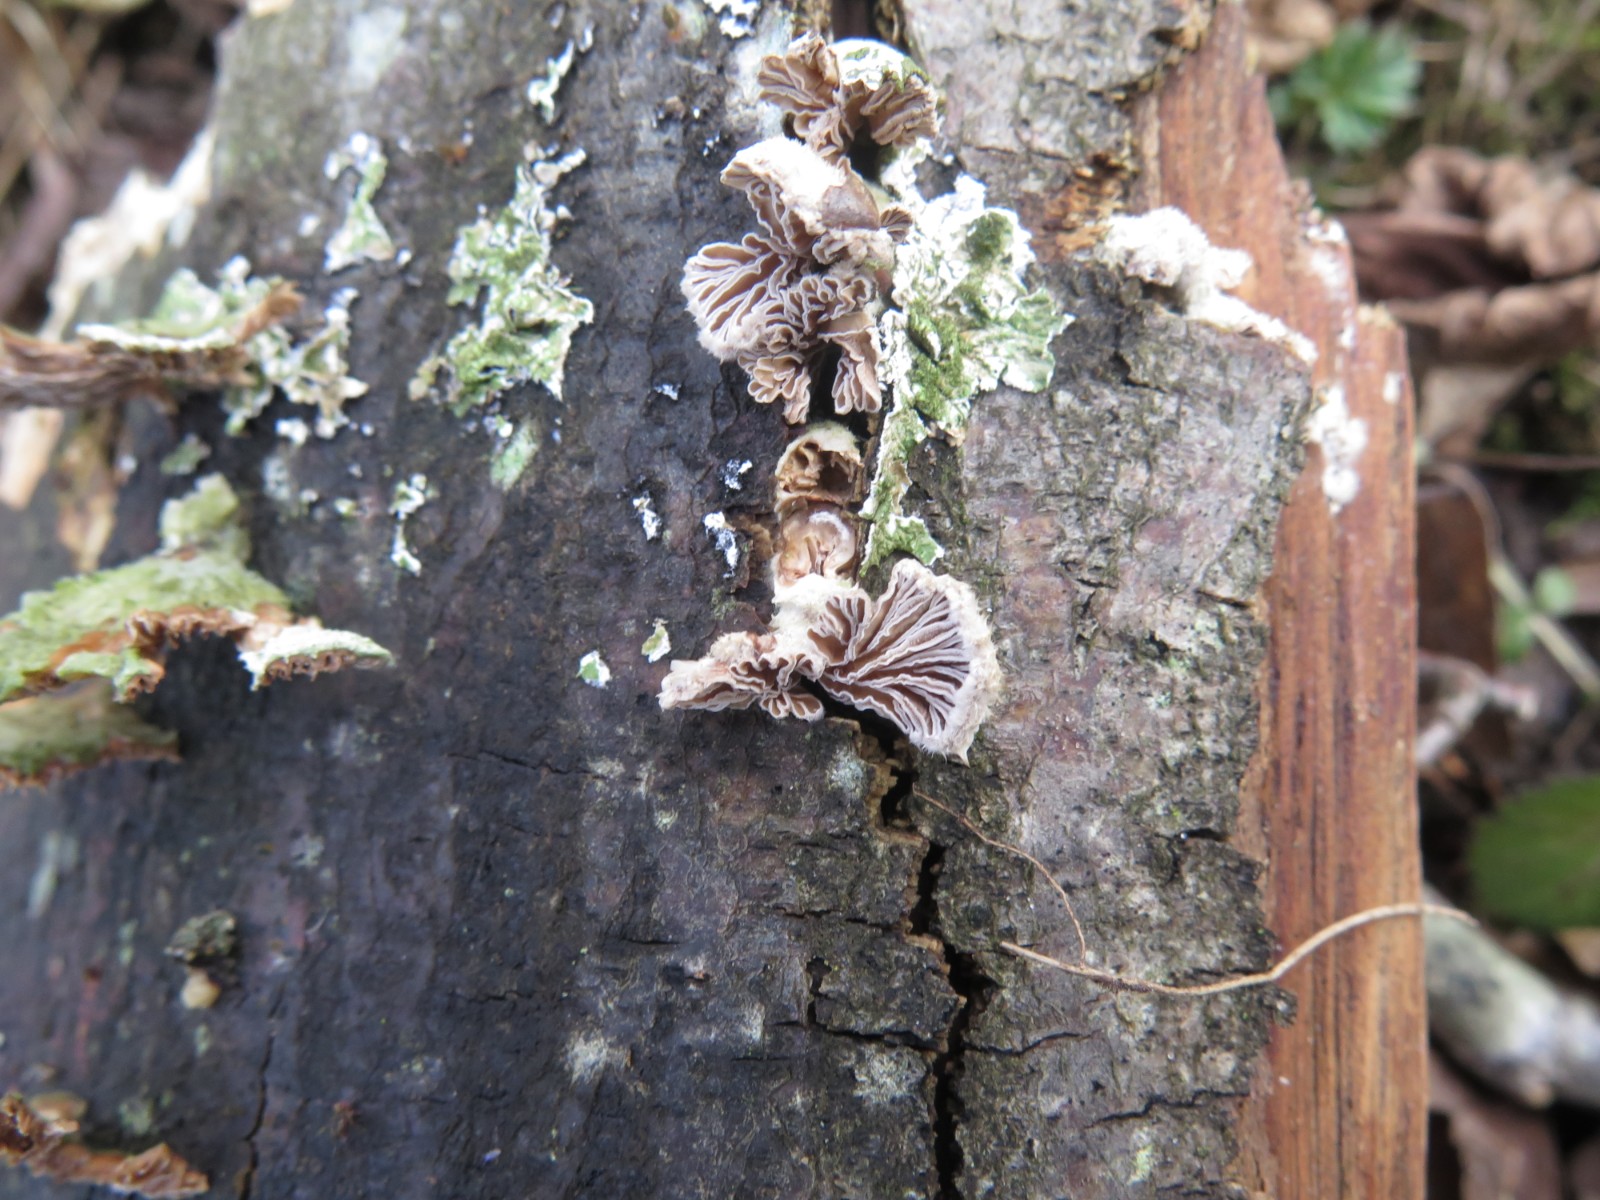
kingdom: Fungi
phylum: Basidiomycota
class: Agaricomycetes
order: Agaricales
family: Schizophyllaceae
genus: Schizophyllum
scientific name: Schizophyllum commune
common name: kløvblad
